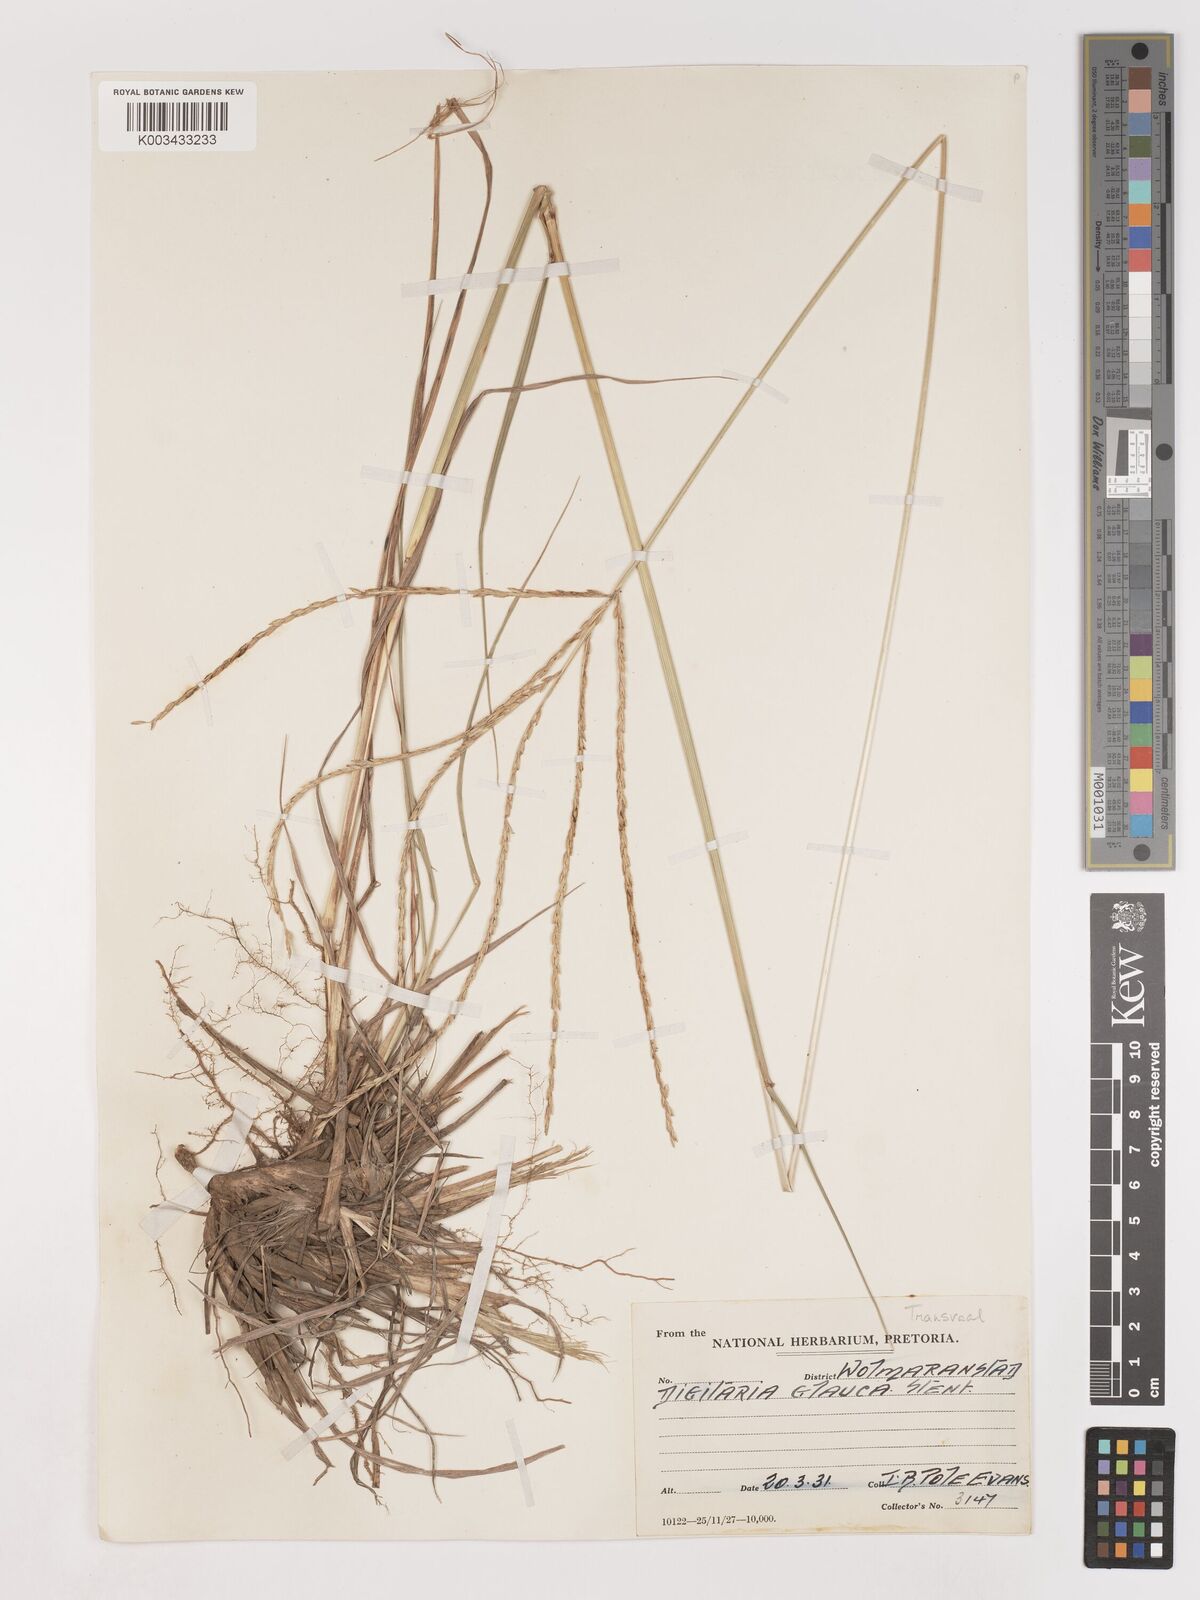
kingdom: Plantae
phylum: Tracheophyta
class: Liliopsida
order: Poales
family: Poaceae
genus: Digitaria
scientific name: Digitaria eriantha
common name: Digitgrass
